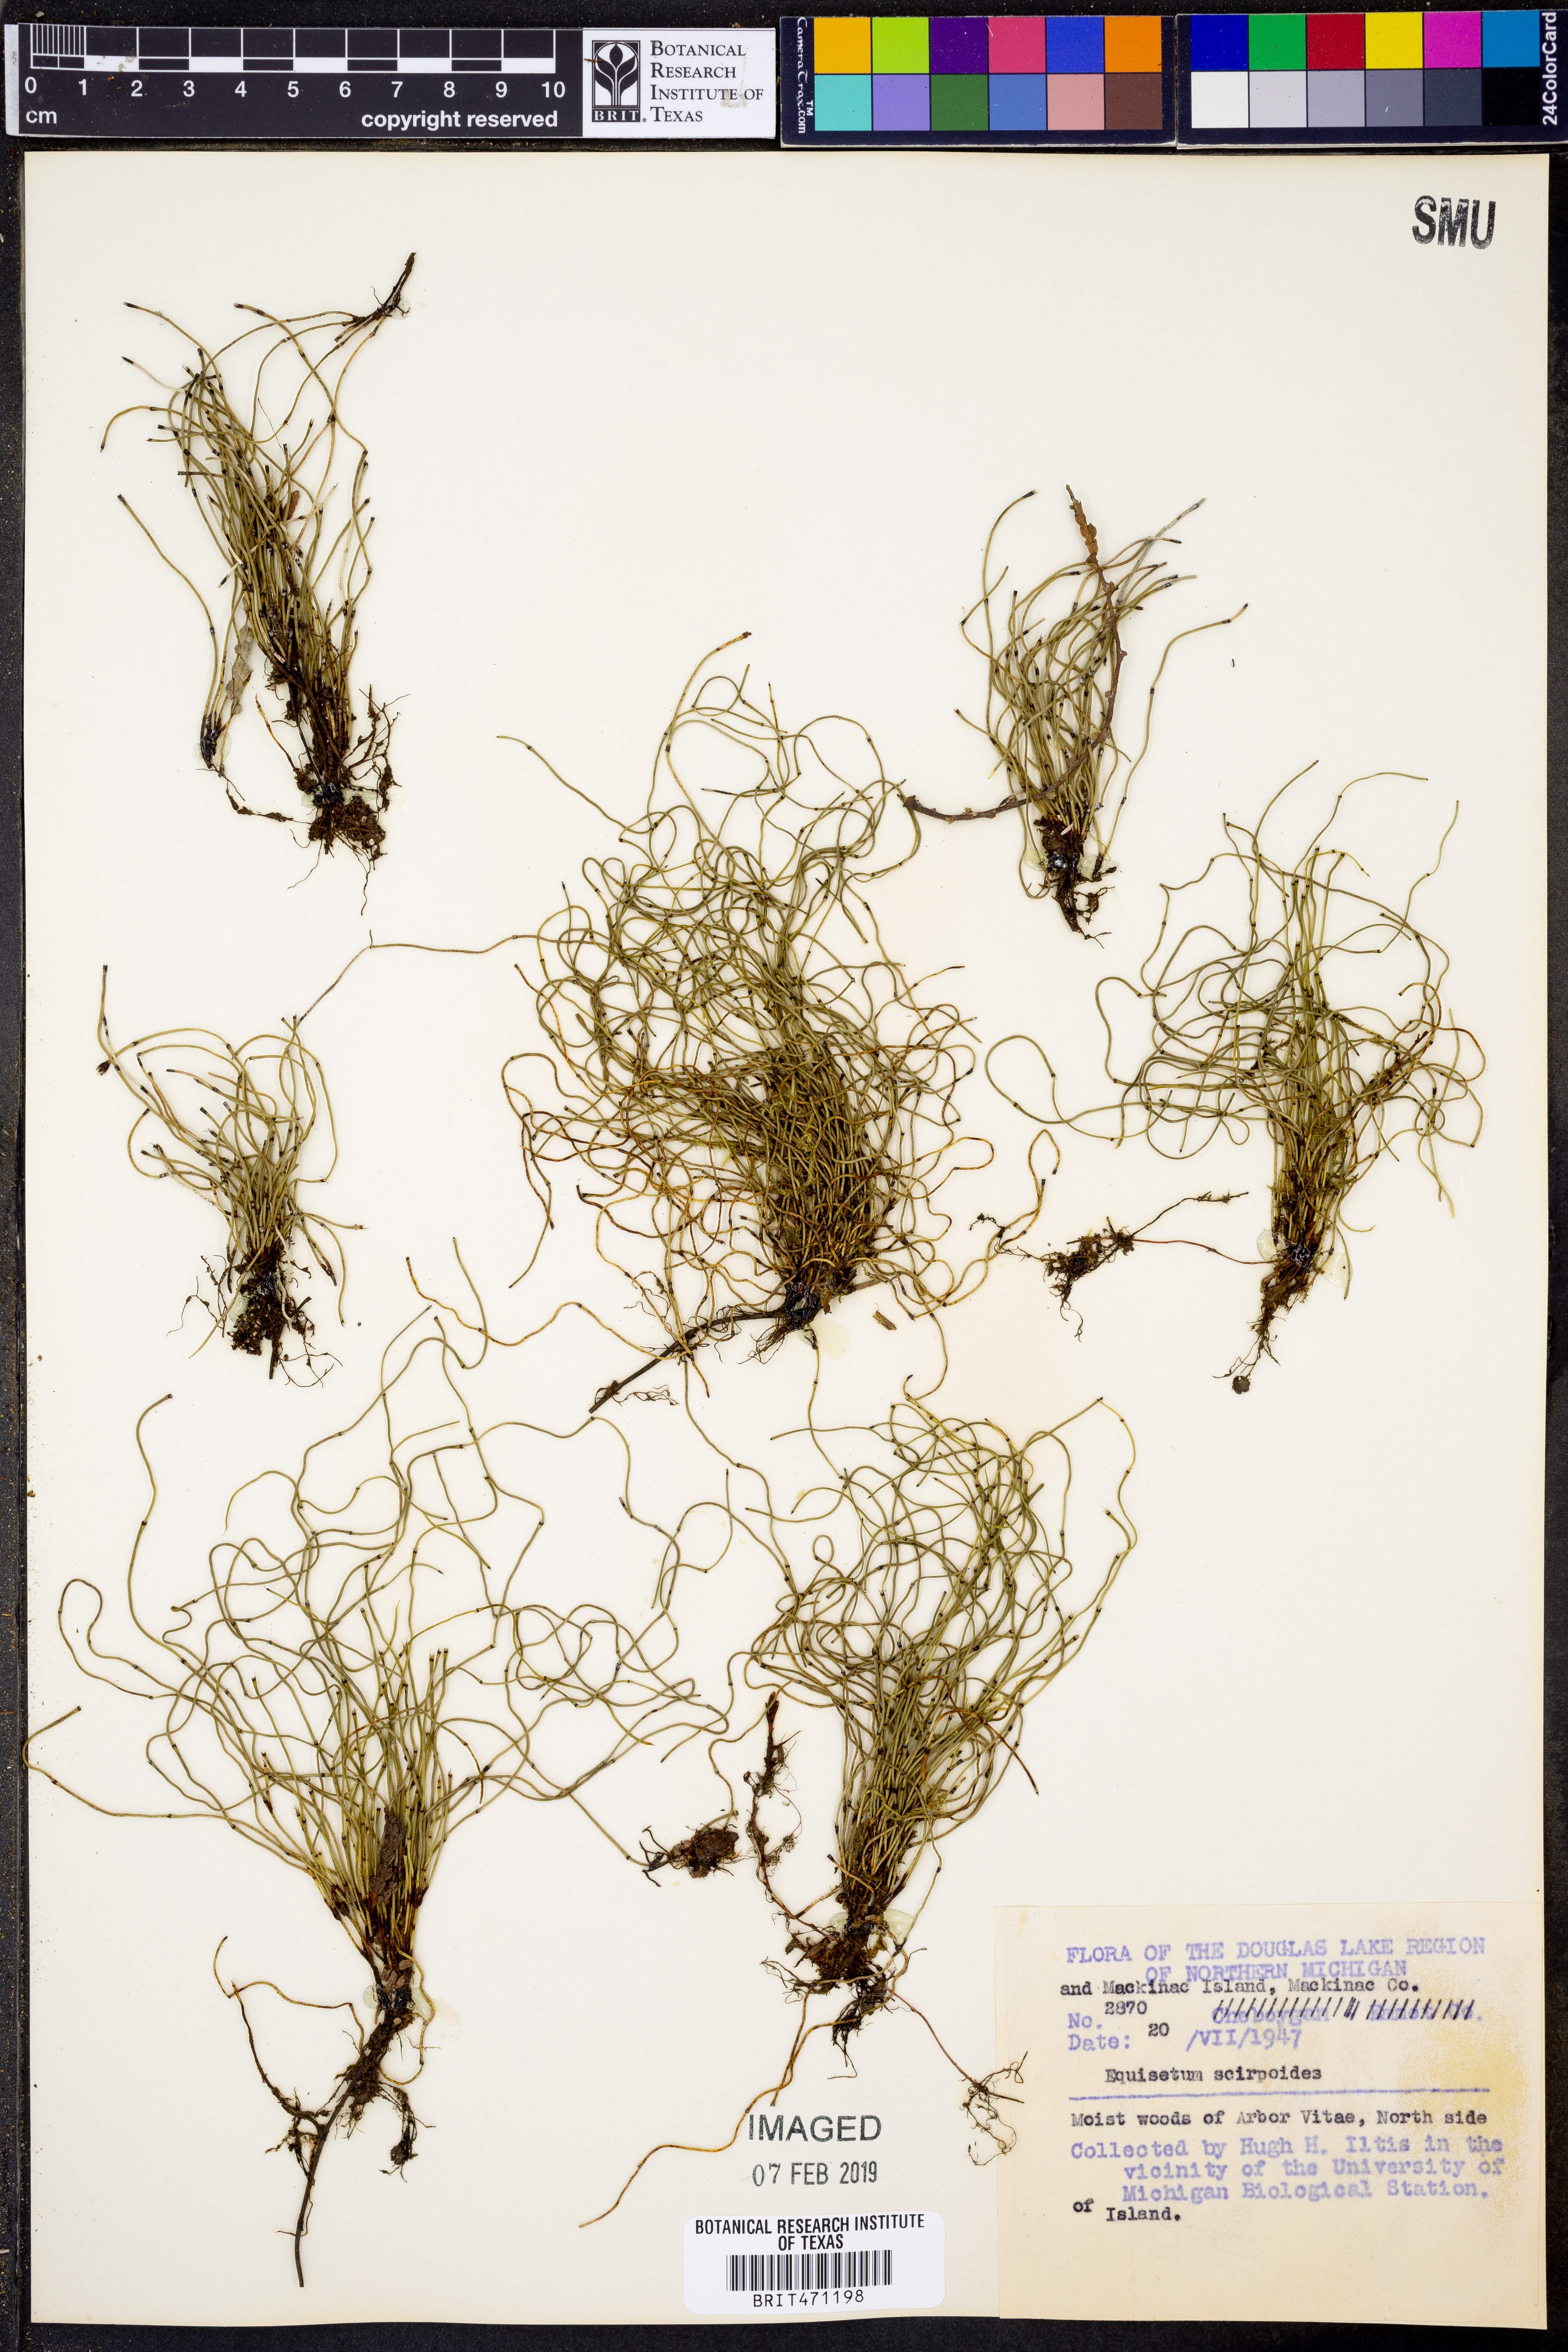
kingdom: Plantae
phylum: Tracheophyta
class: Polypodiopsida
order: Equisetales
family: Equisetaceae
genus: Equisetum
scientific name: Equisetum scirpoides
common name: Delicate horsetail
